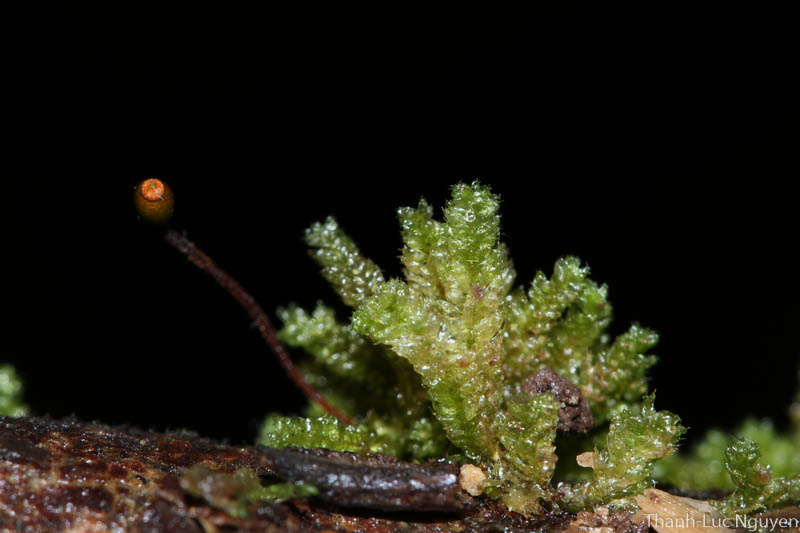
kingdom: Plantae
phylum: Bryophyta
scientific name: Bryophyta
